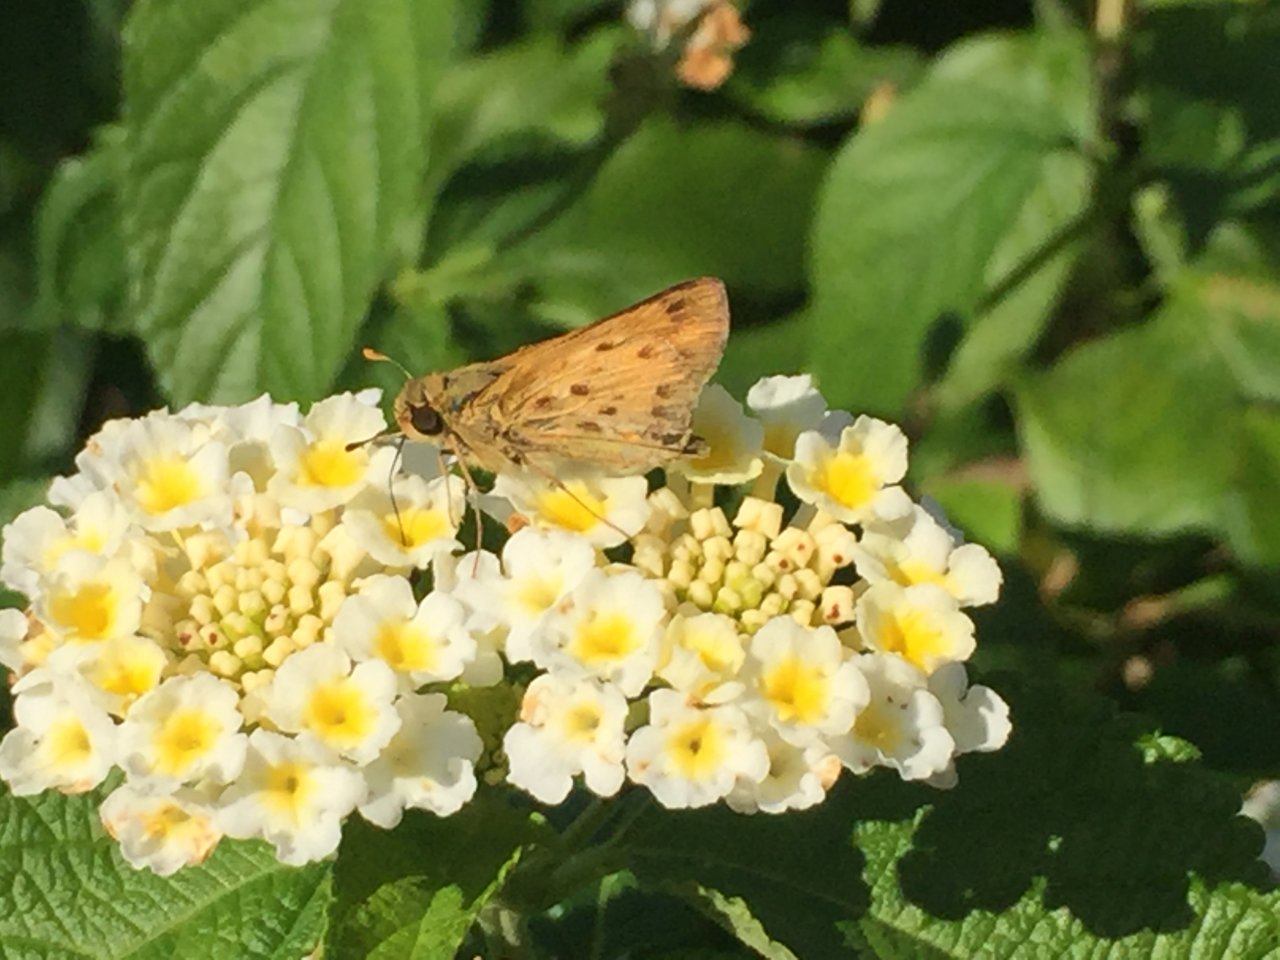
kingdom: Animalia
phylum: Arthropoda
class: Insecta
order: Lepidoptera
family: Hesperiidae
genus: Hylephila
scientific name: Hylephila phyleus
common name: Fiery Skipper
